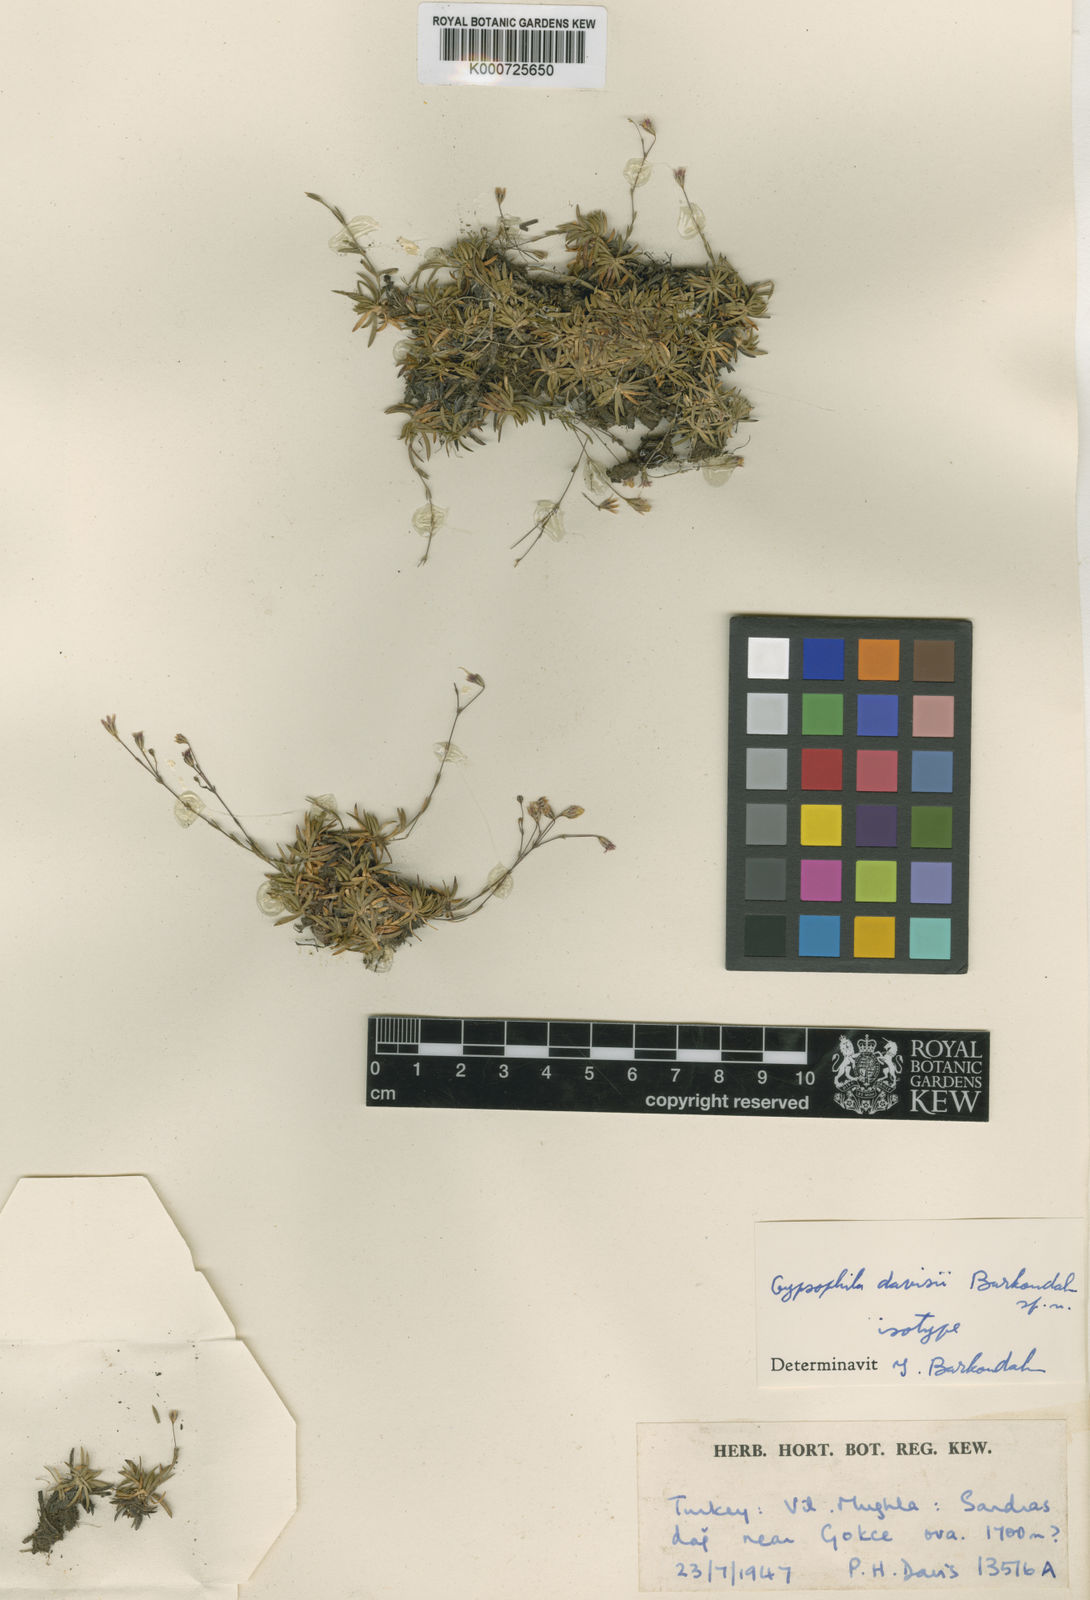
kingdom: Plantae
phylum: Tracheophyta
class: Magnoliopsida
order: Caryophyllales
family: Caryophyllaceae
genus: Gypsophila
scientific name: Gypsophila davisii
